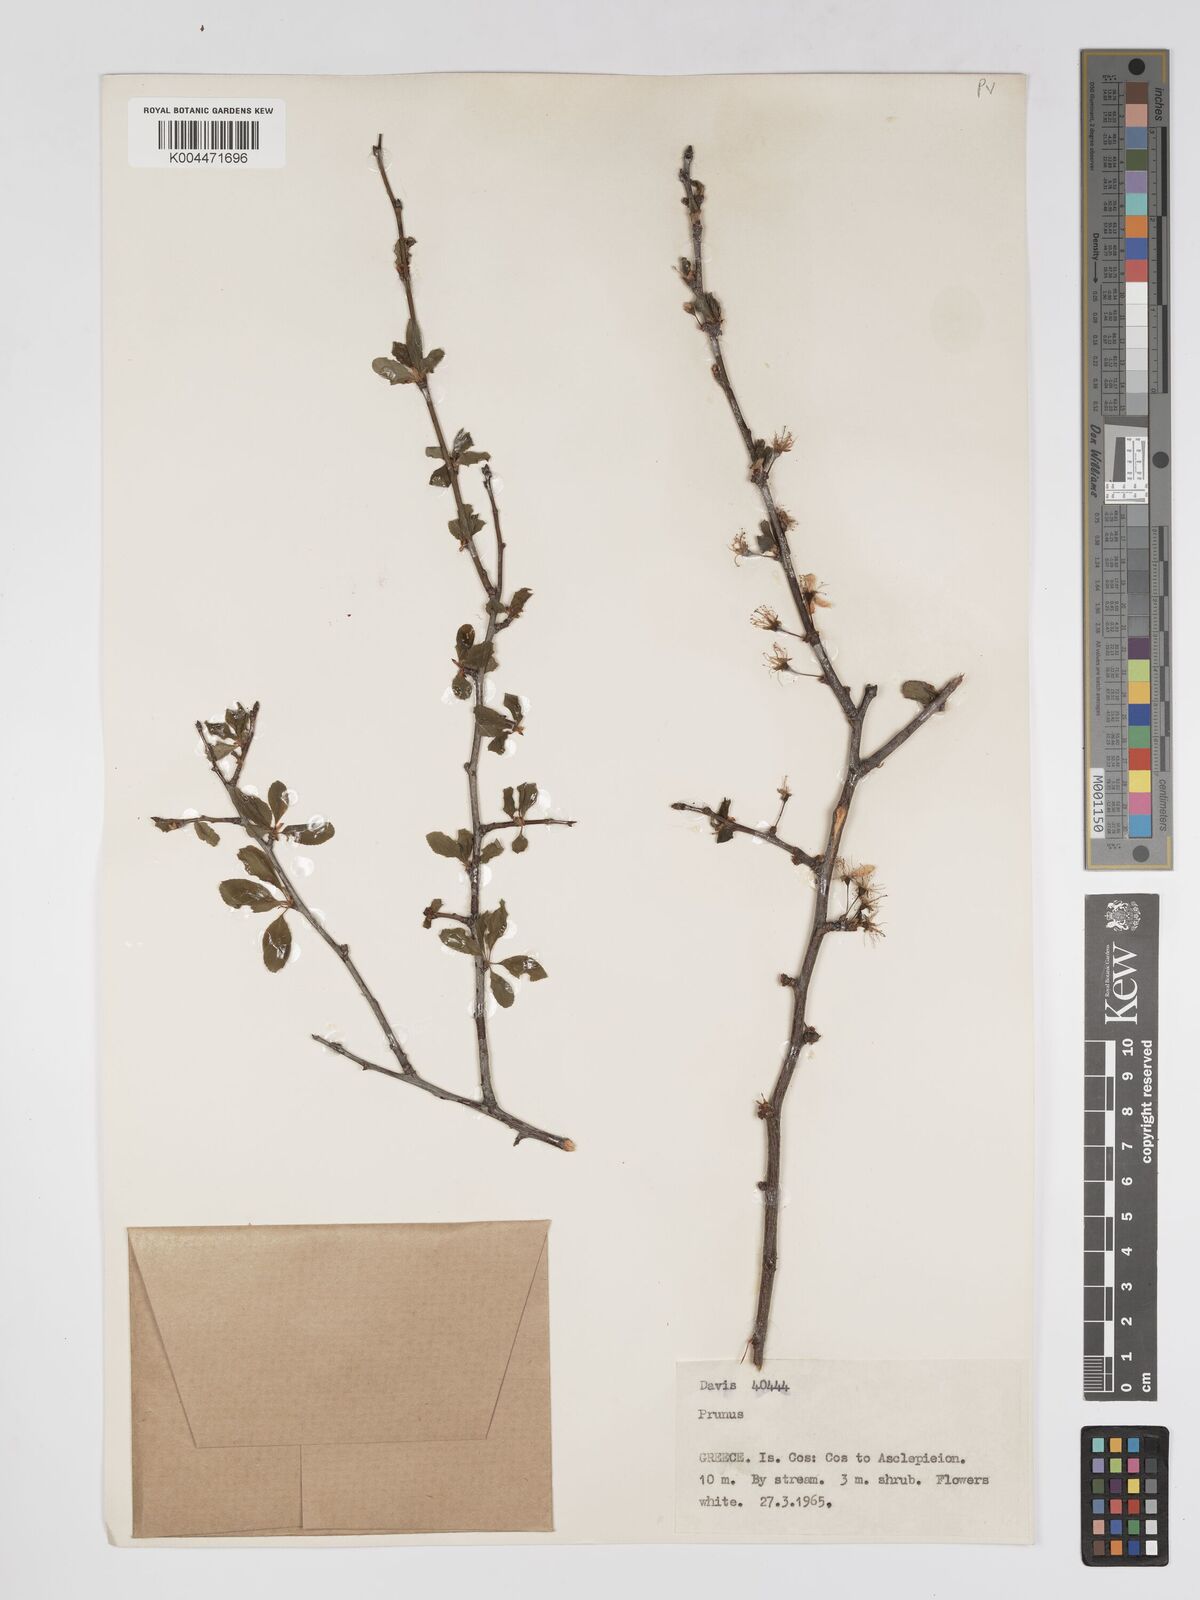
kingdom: Plantae
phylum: Tracheophyta
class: Magnoliopsida
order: Rosales
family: Rosaceae
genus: Prunus
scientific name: Prunus
